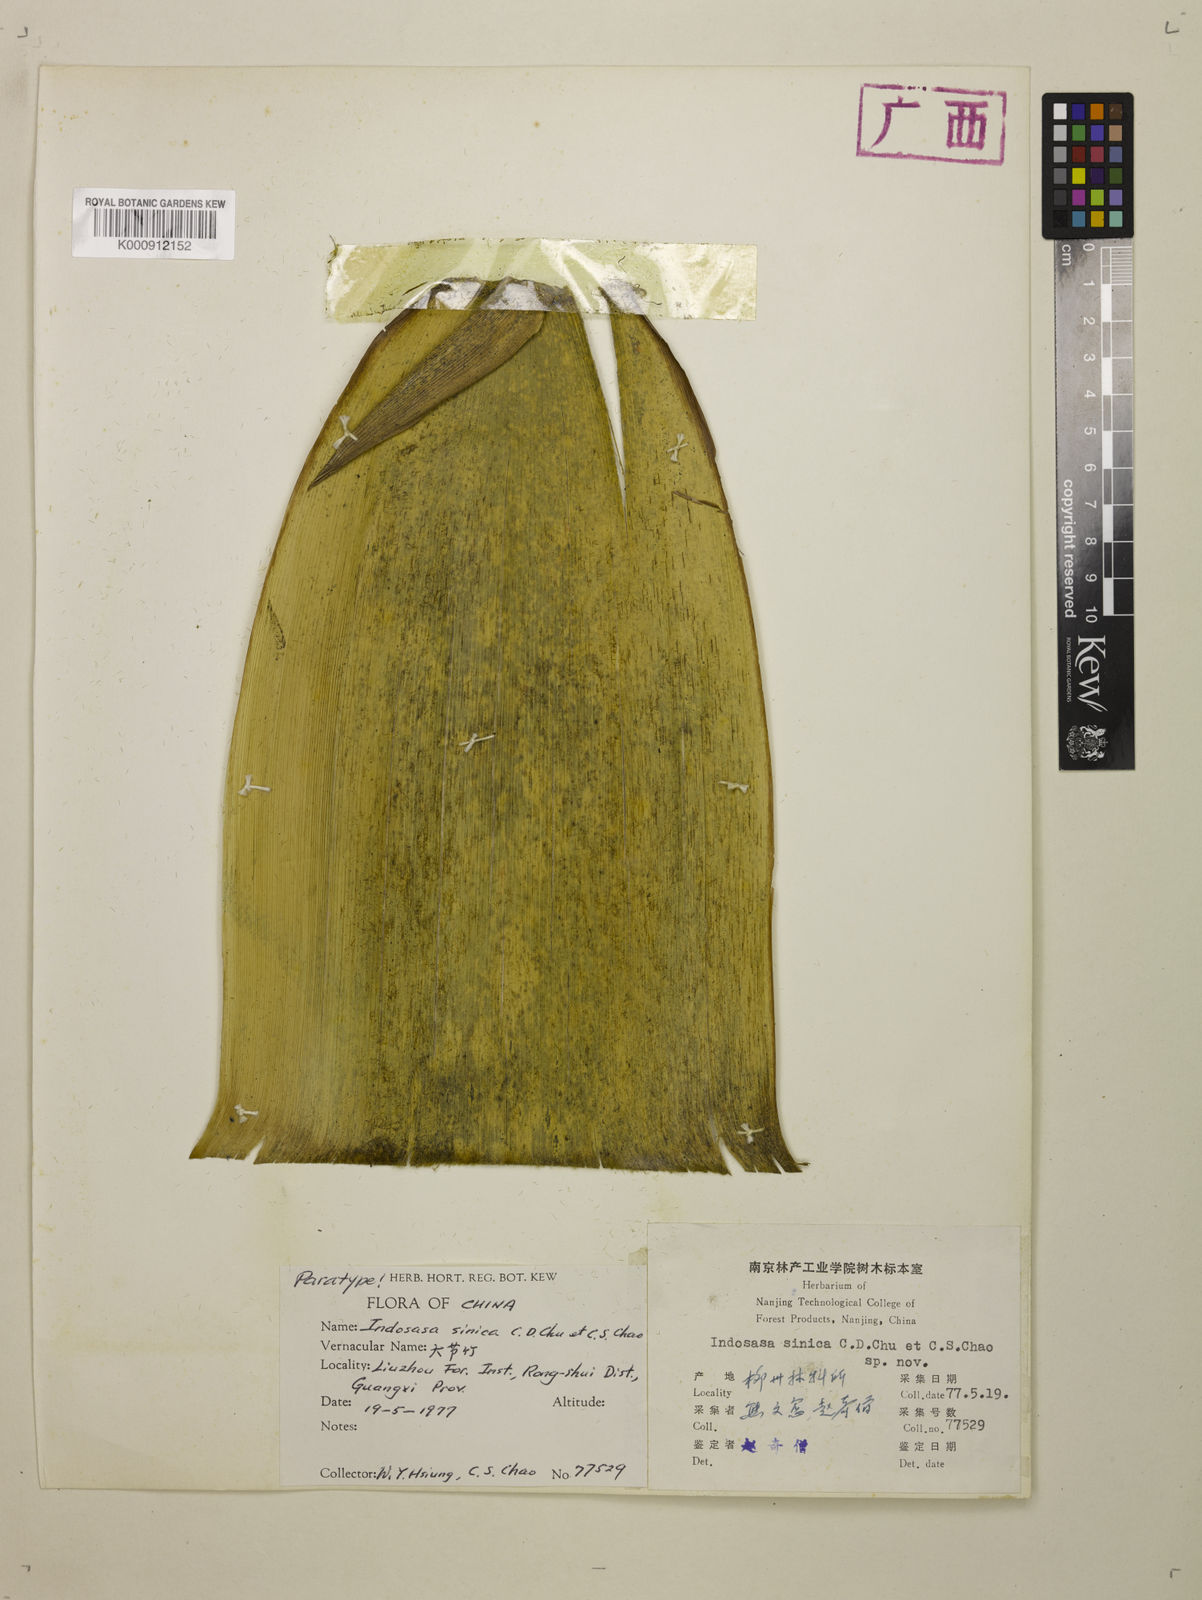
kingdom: Plantae
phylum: Tracheophyta
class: Liliopsida
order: Poales
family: Poaceae
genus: Indosasa
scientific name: Indosasa sinica
